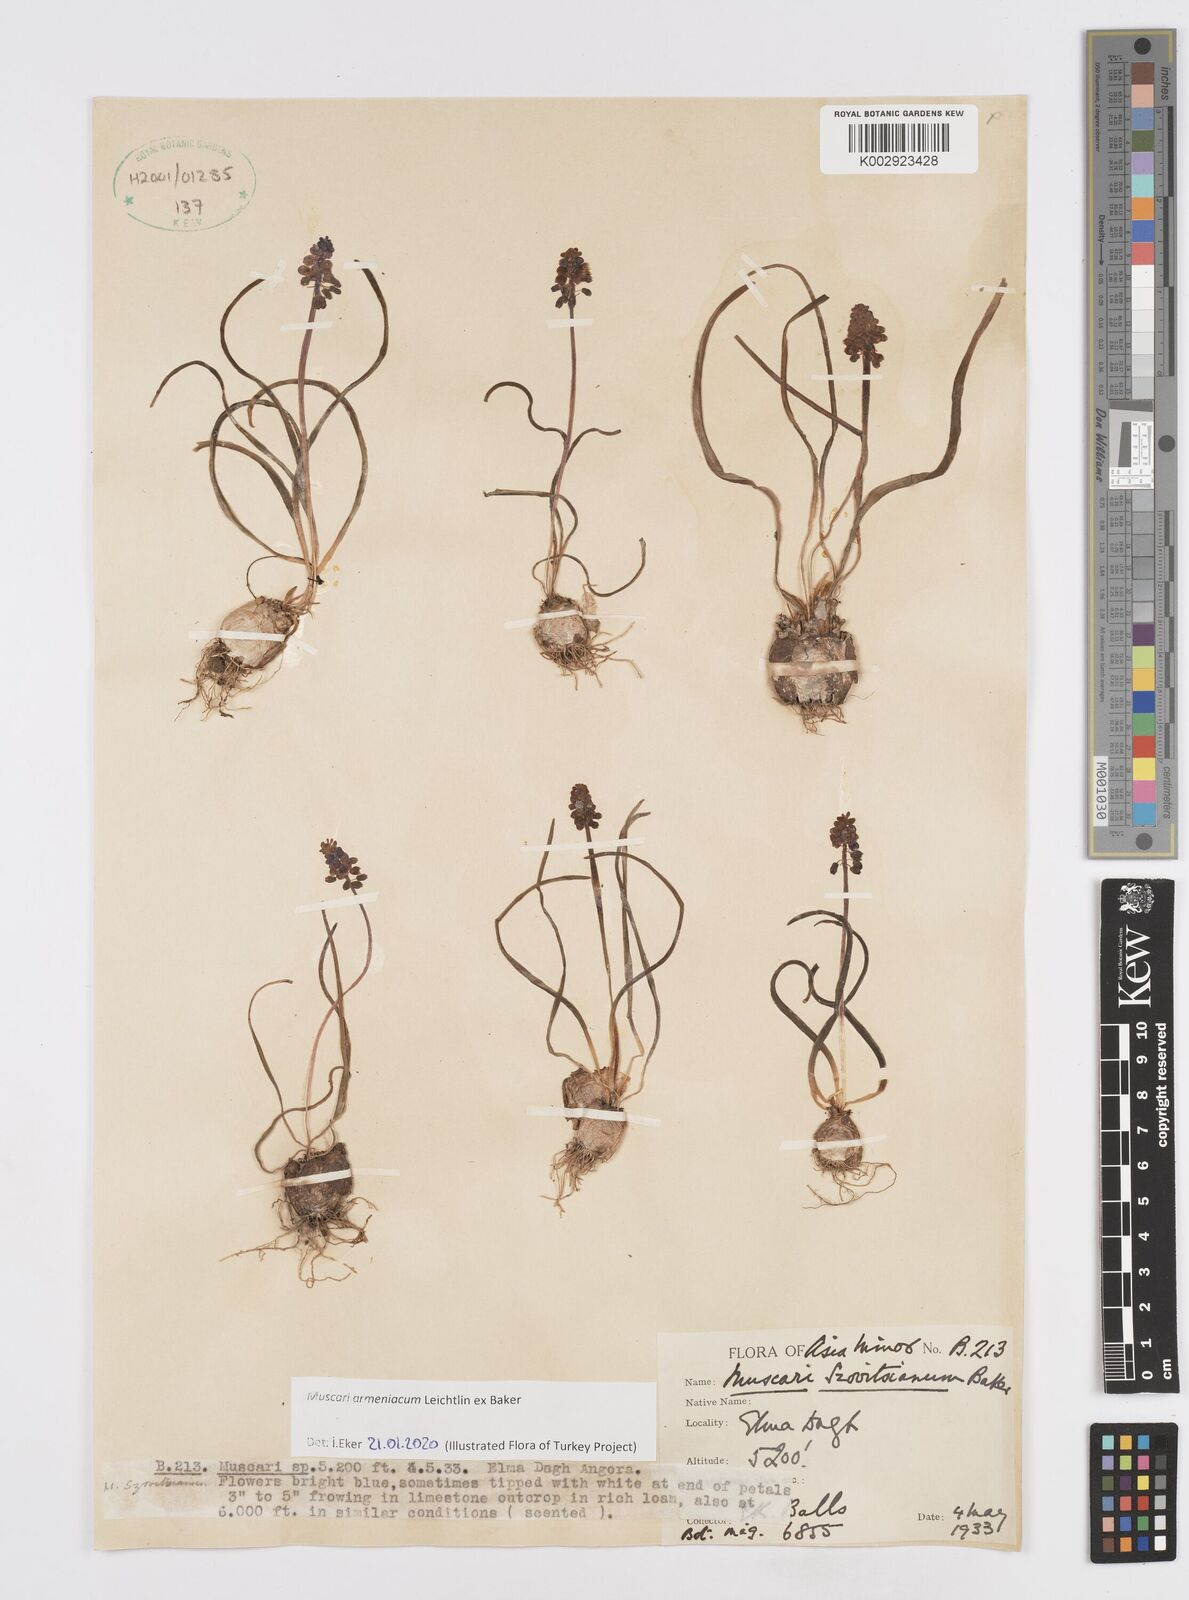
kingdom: Plantae
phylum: Tracheophyta
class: Liliopsida
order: Asparagales
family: Asparagaceae
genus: Muscari
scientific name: Muscari neglectum
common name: Grape-hyacinth
